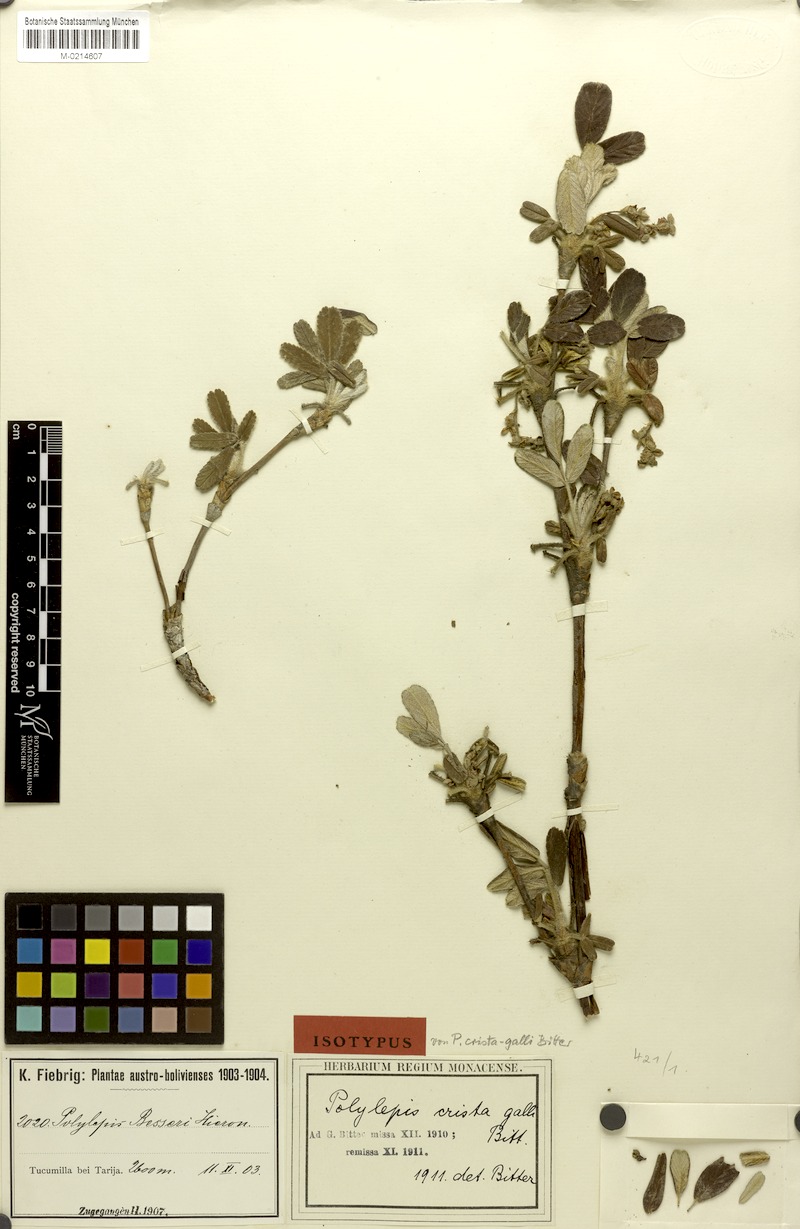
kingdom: Plantae
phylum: Tracheophyta
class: Magnoliopsida
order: Rosales
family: Rosaceae
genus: Polylepis
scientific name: Polylepis besseri
